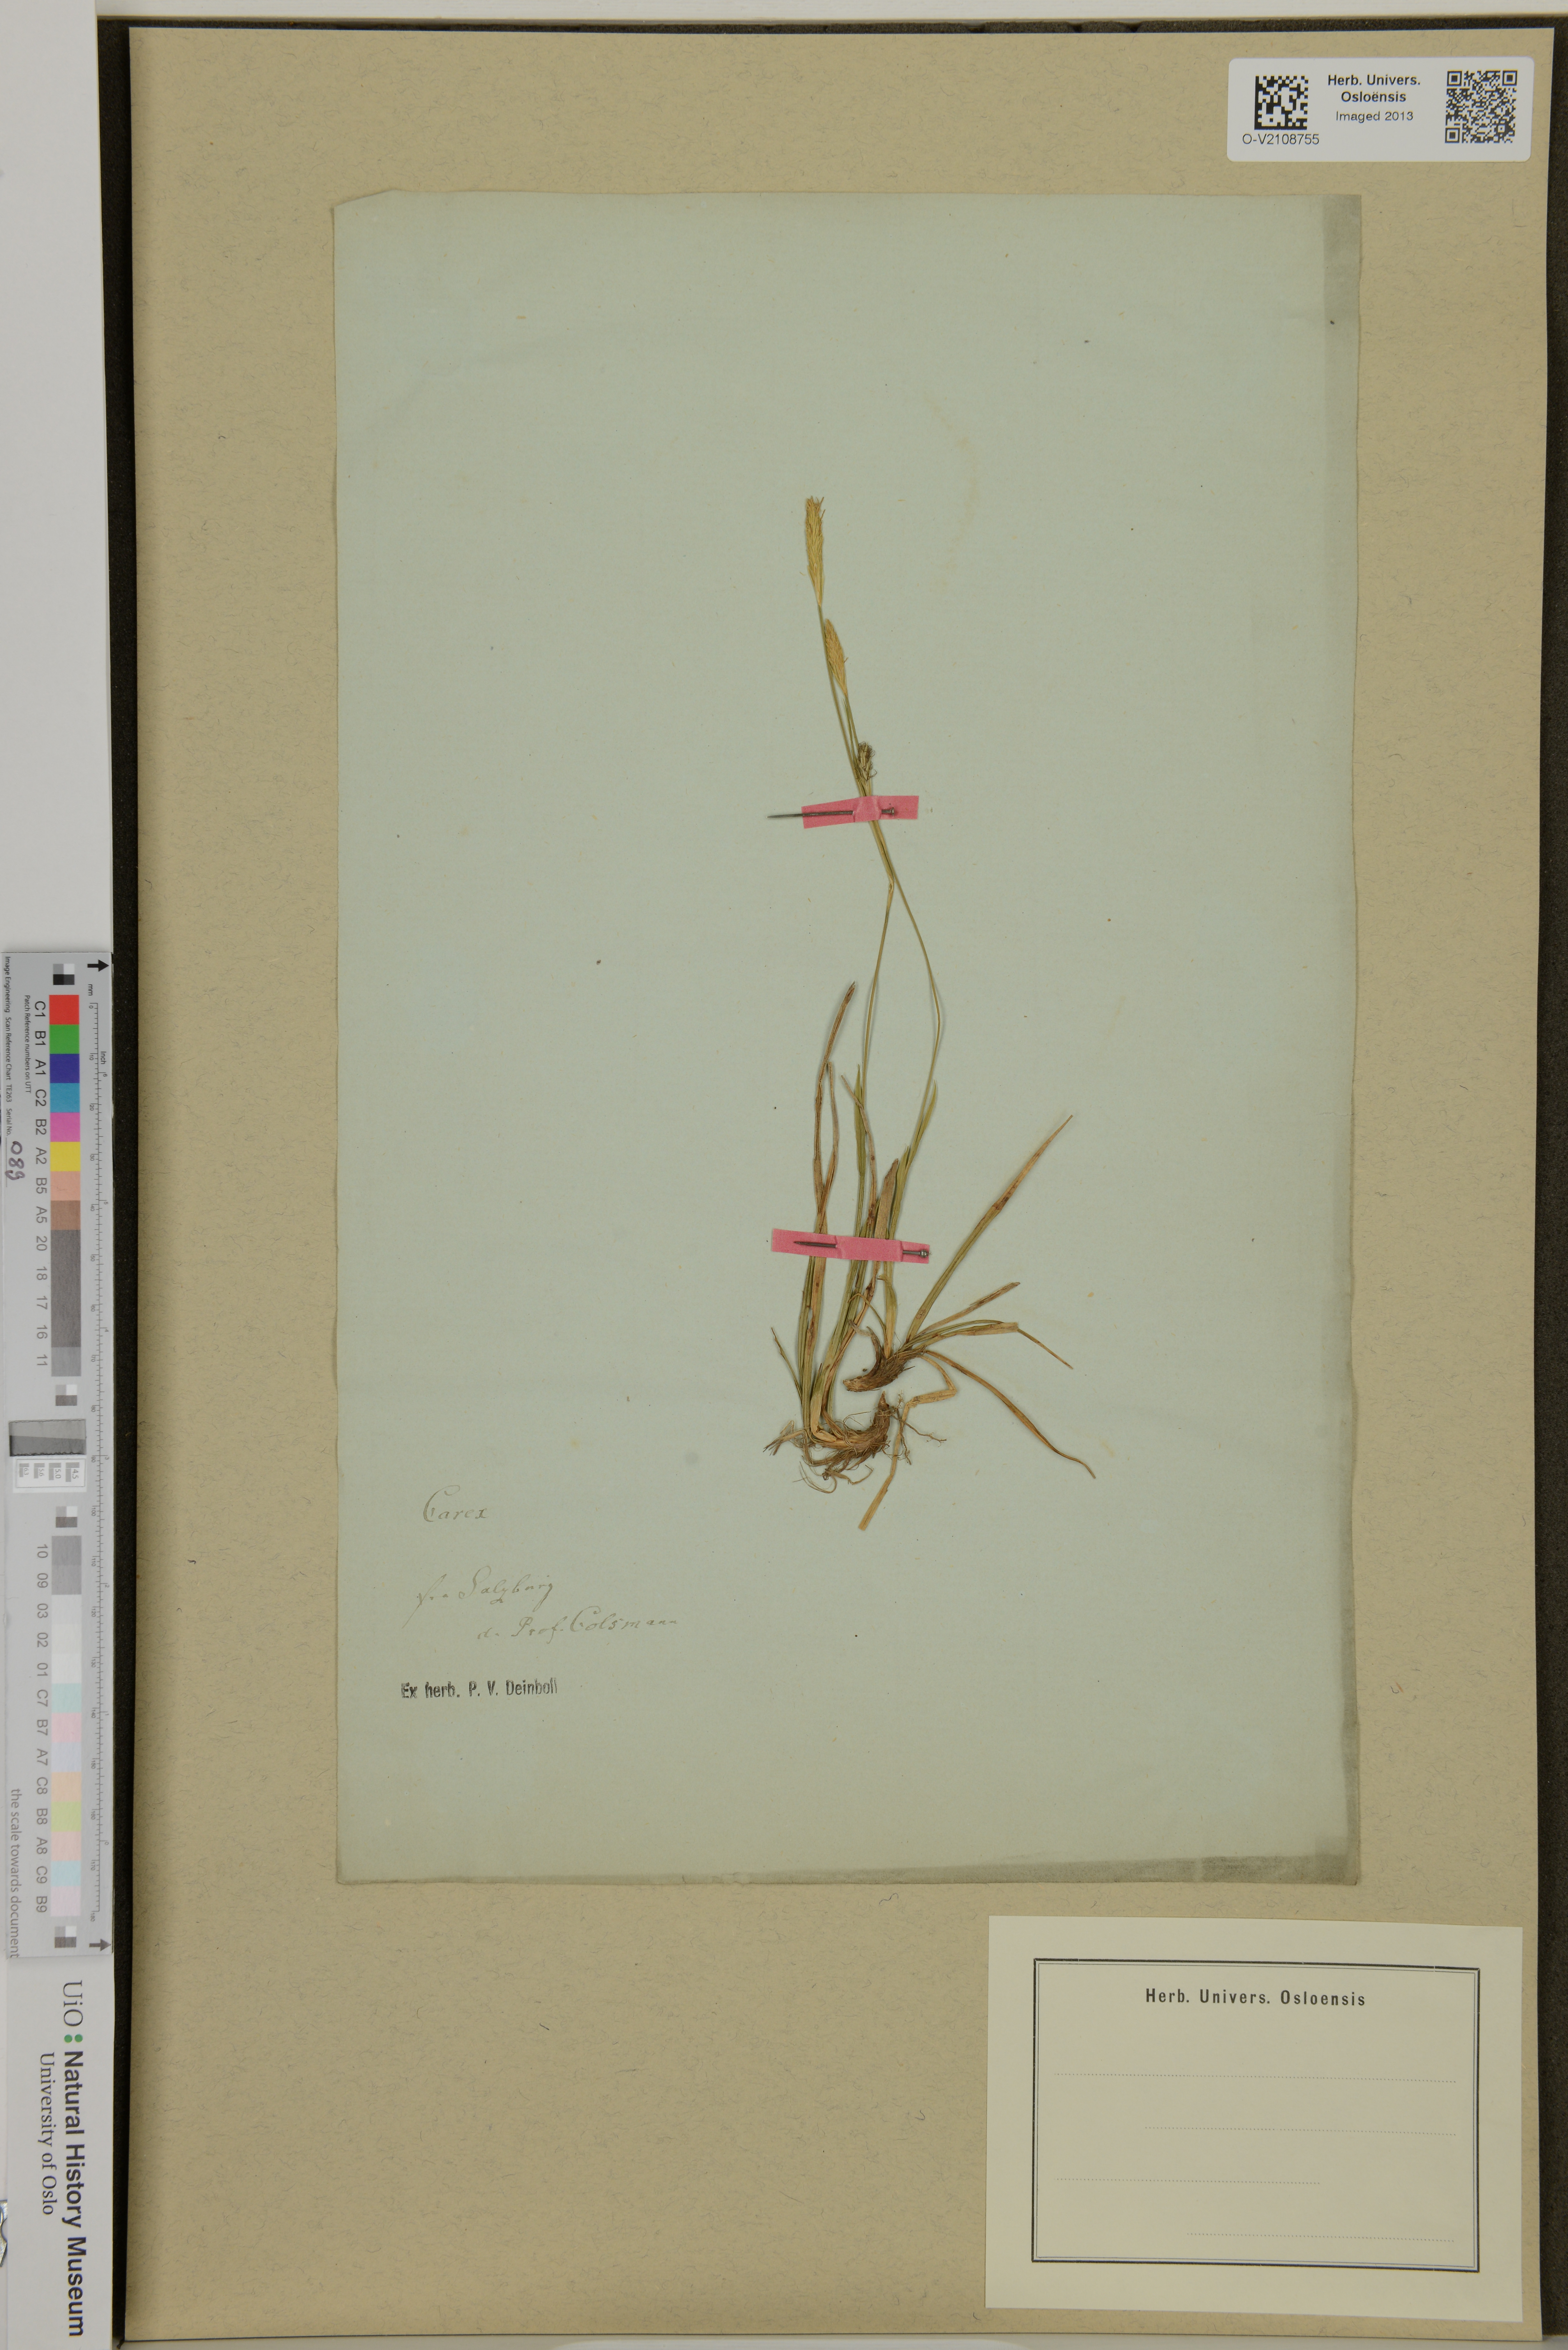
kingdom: Plantae
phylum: Tracheophyta
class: Liliopsida
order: Poales
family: Cyperaceae
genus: Carex
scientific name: Carex
